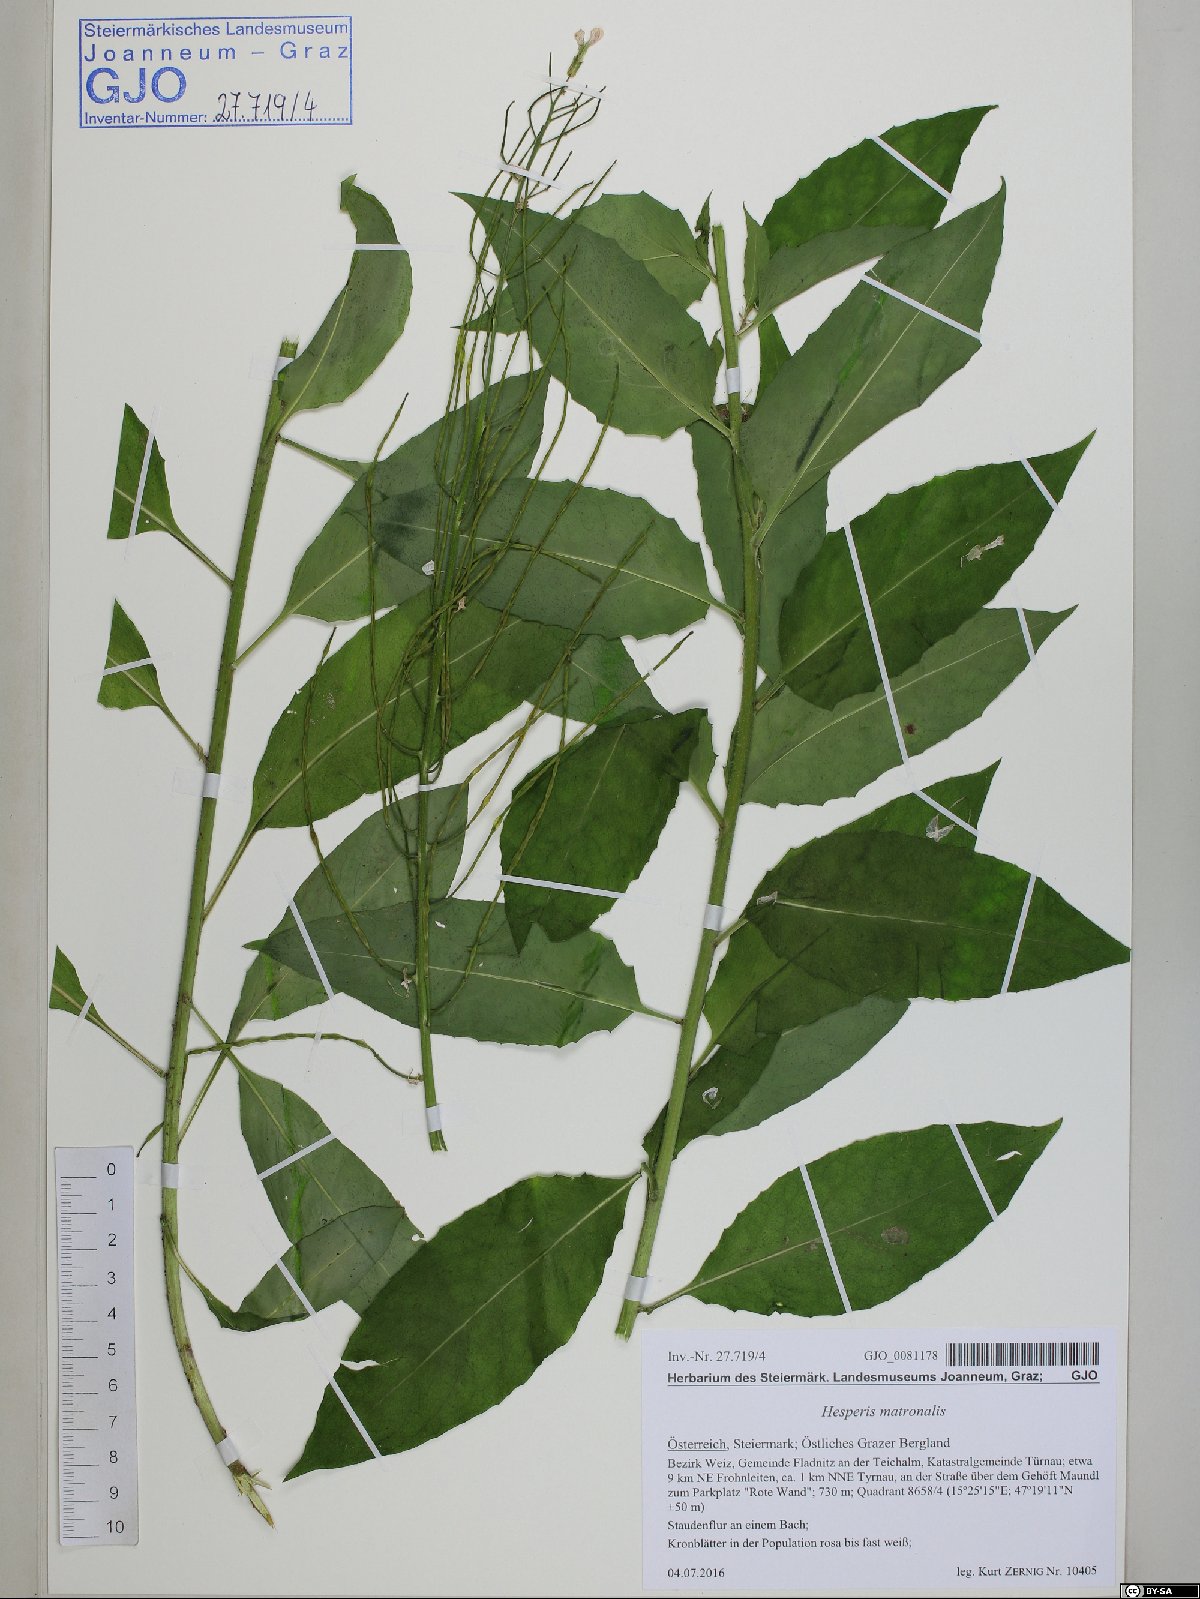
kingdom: Plantae
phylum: Tracheophyta
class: Magnoliopsida
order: Brassicales
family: Brassicaceae
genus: Hesperis
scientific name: Hesperis matronalis
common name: Dame's-violet
